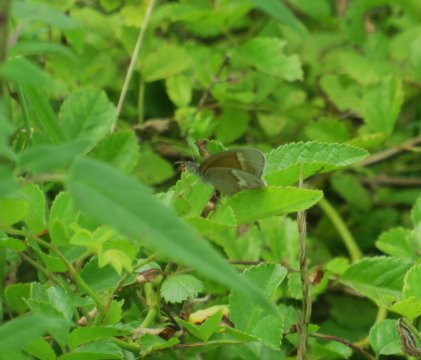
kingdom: Animalia
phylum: Arthropoda
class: Insecta
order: Lepidoptera
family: Nymphalidae
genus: Coenonympha
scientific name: Coenonympha tullia
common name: Large Heath
